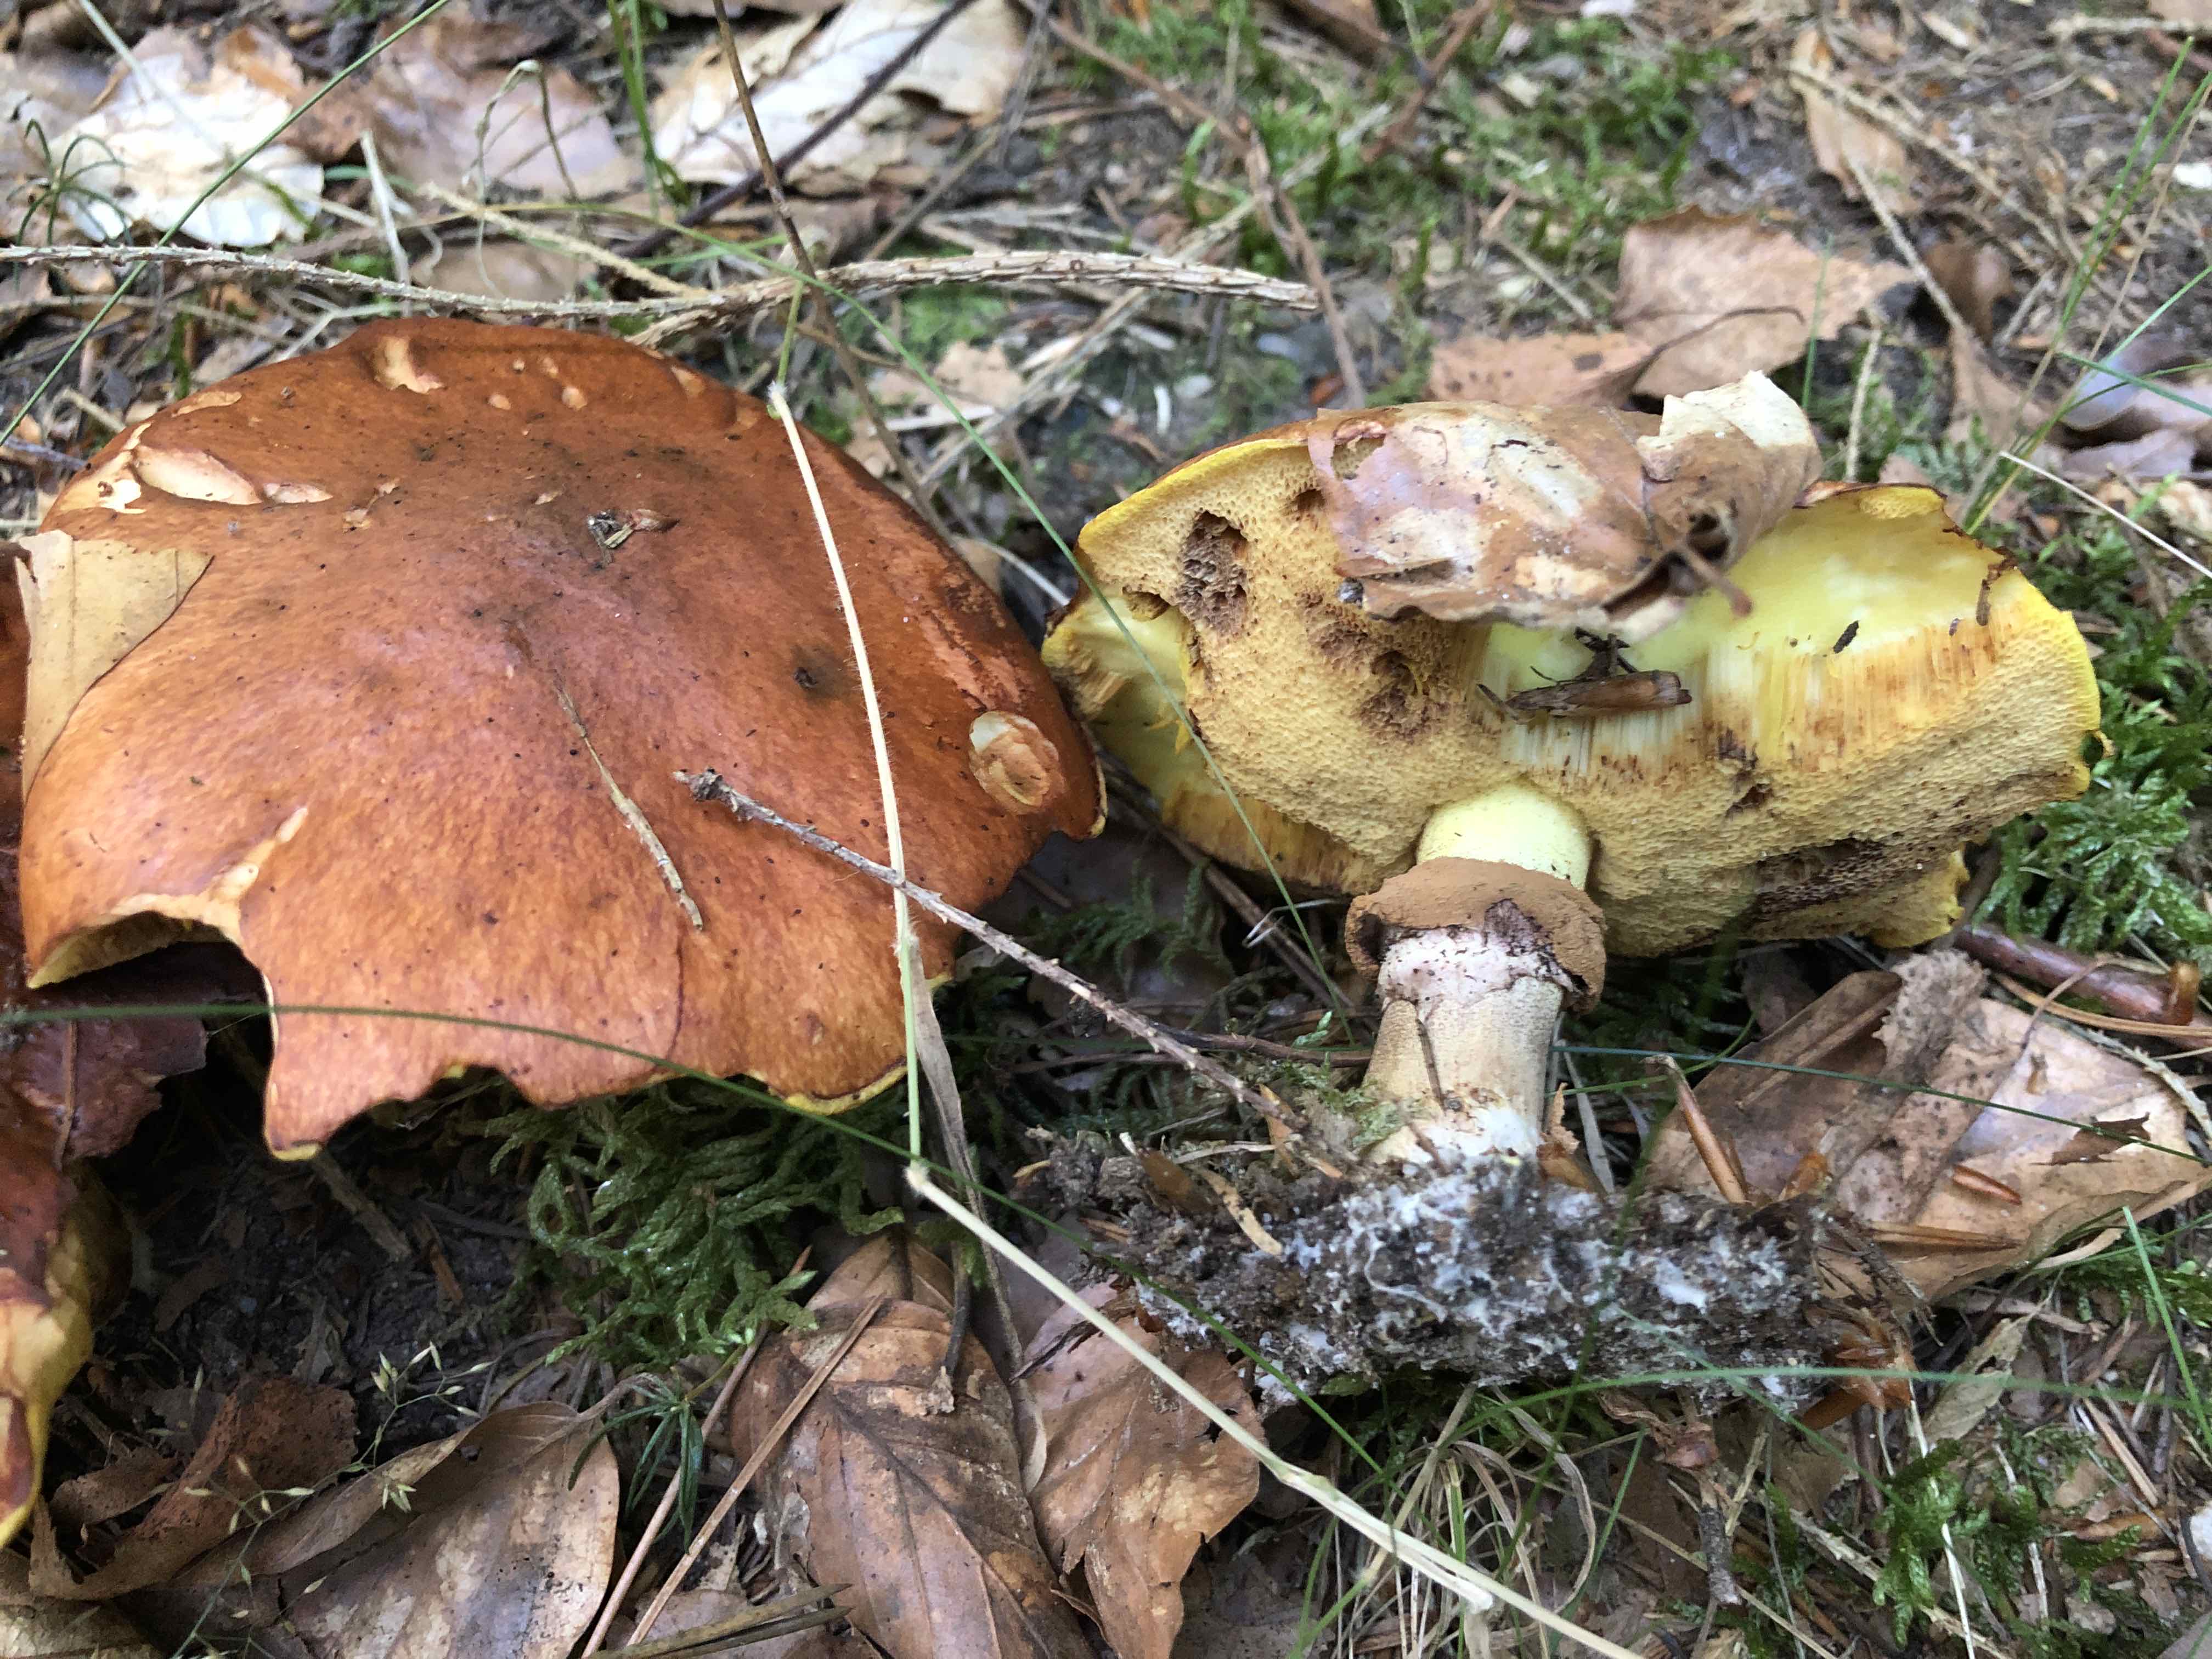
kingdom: Fungi
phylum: Basidiomycota
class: Agaricomycetes
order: Boletales
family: Suillaceae
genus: Suillus
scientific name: Suillus luteus
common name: brungul slimrørhat
